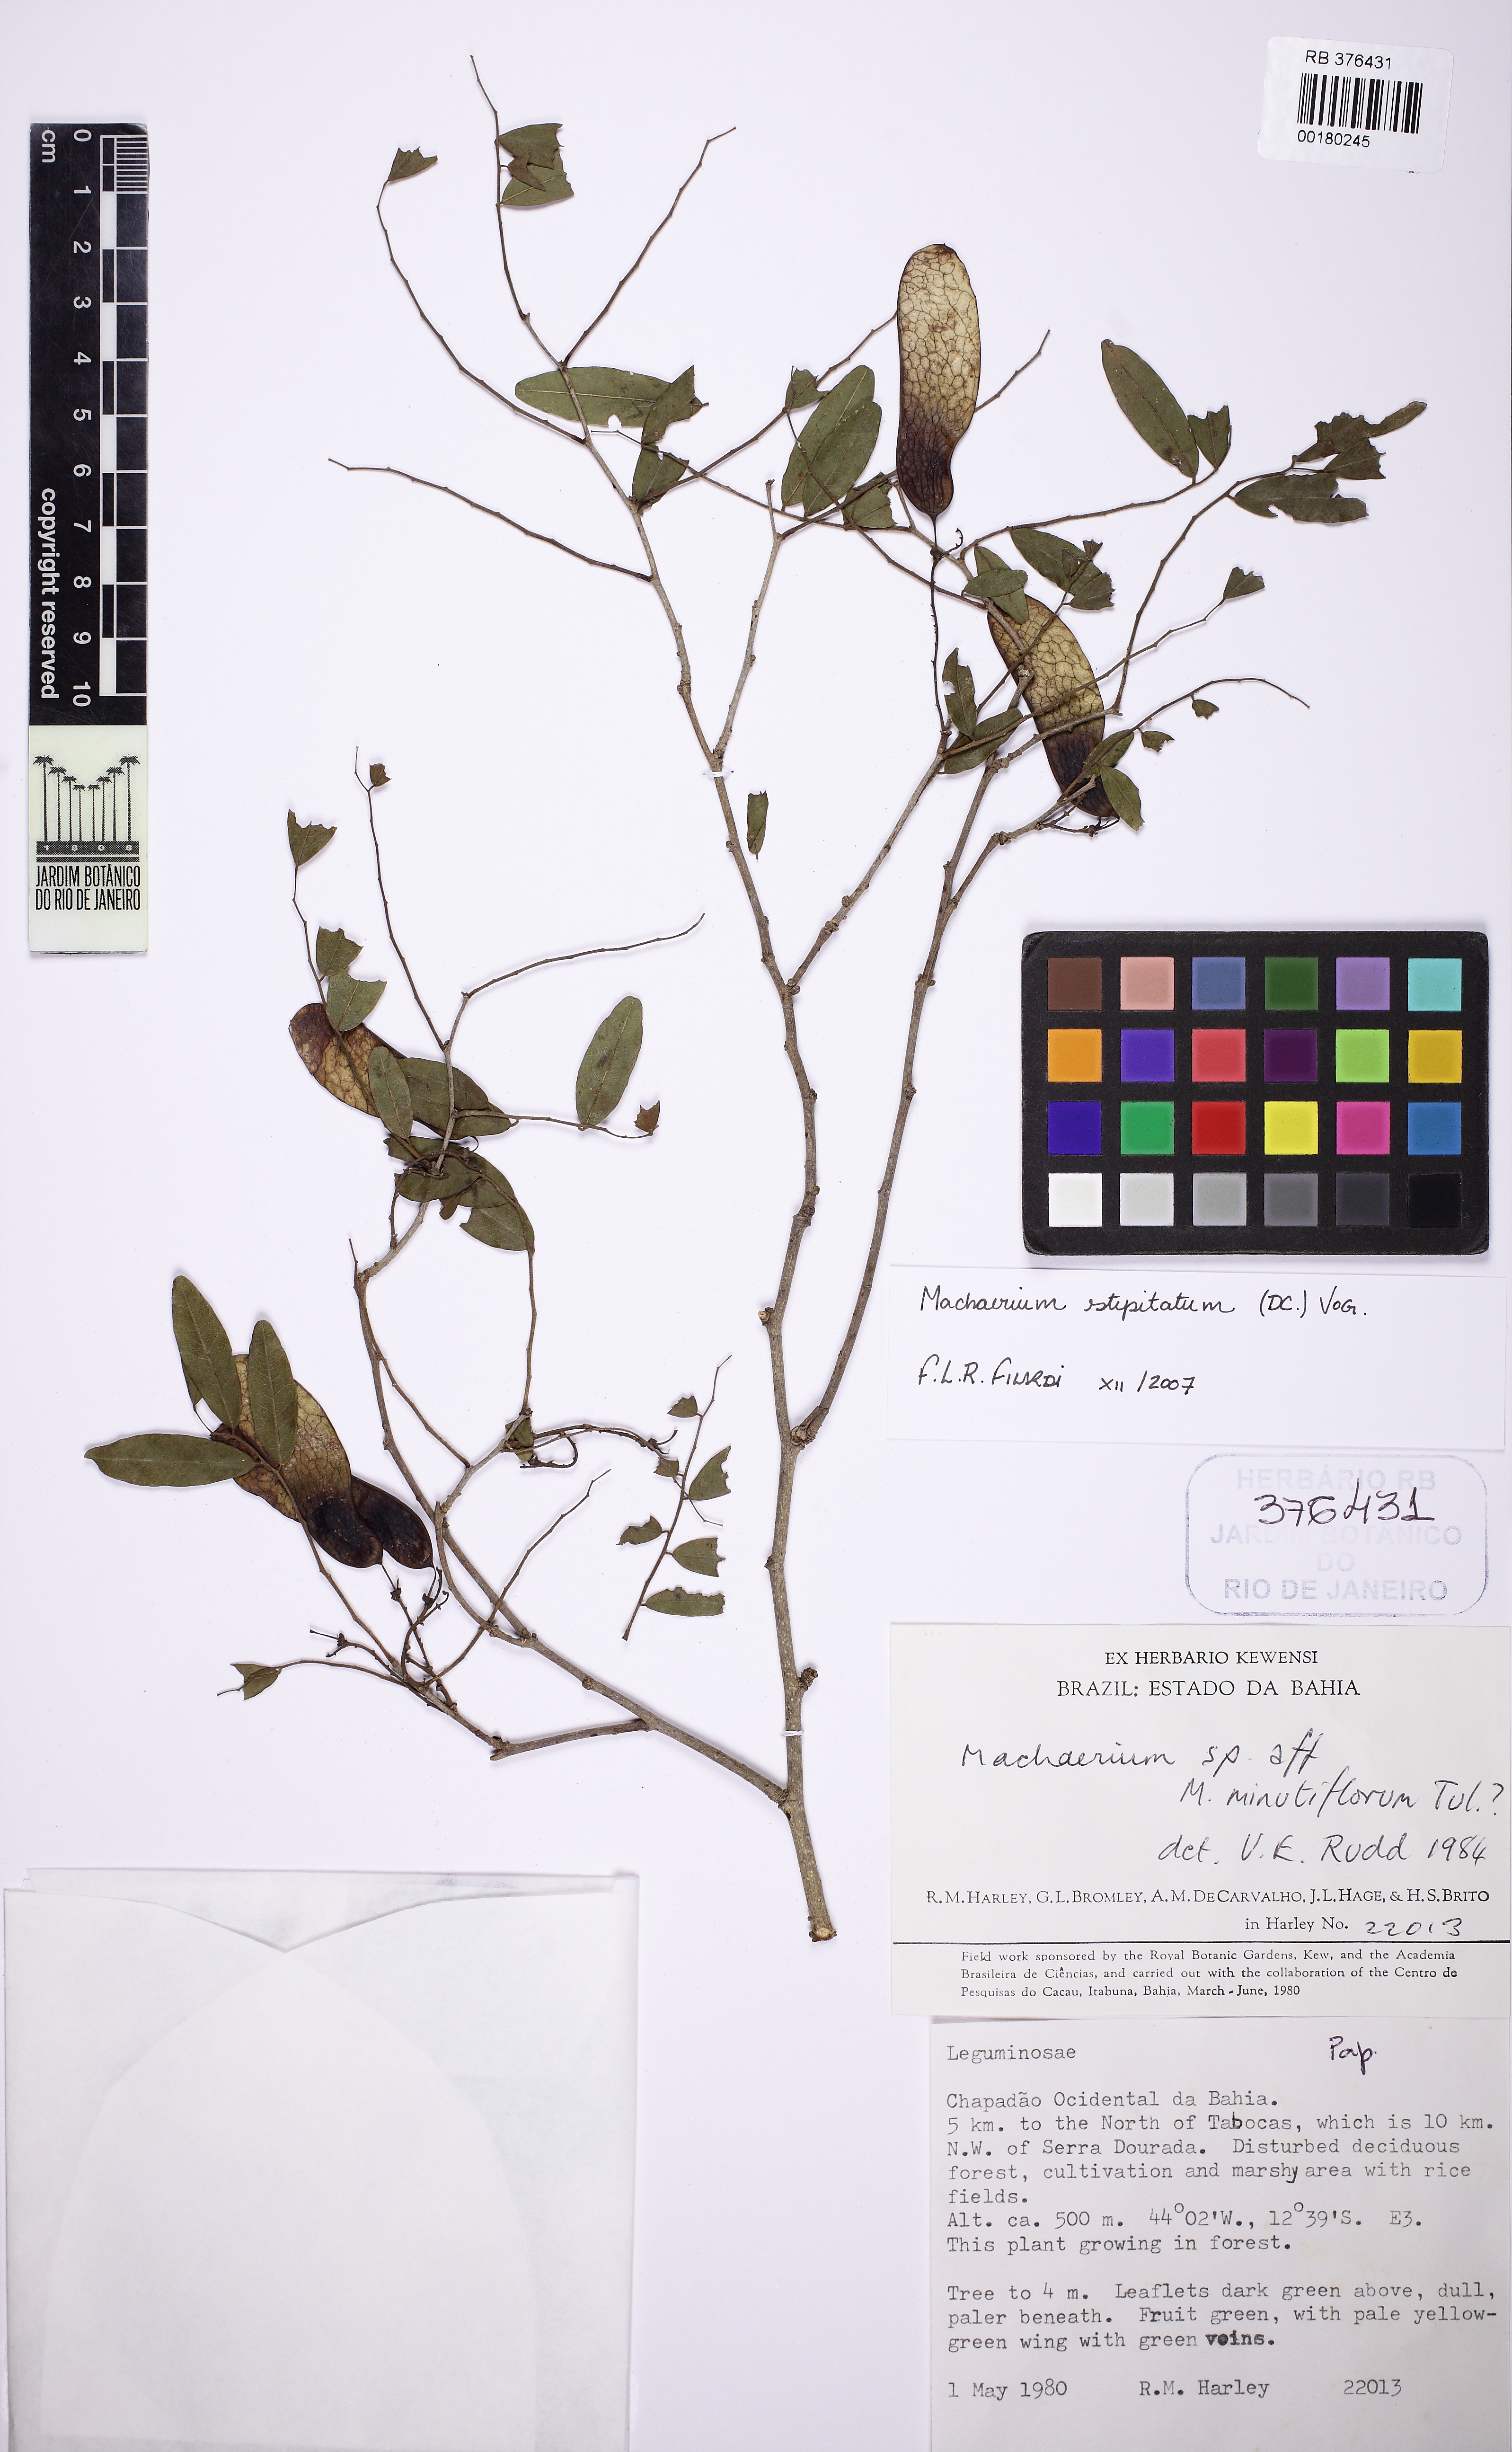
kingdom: Plantae
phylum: Tracheophyta
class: Magnoliopsida
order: Fabales
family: Fabaceae
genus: Machaerium
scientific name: Machaerium stipitatum
